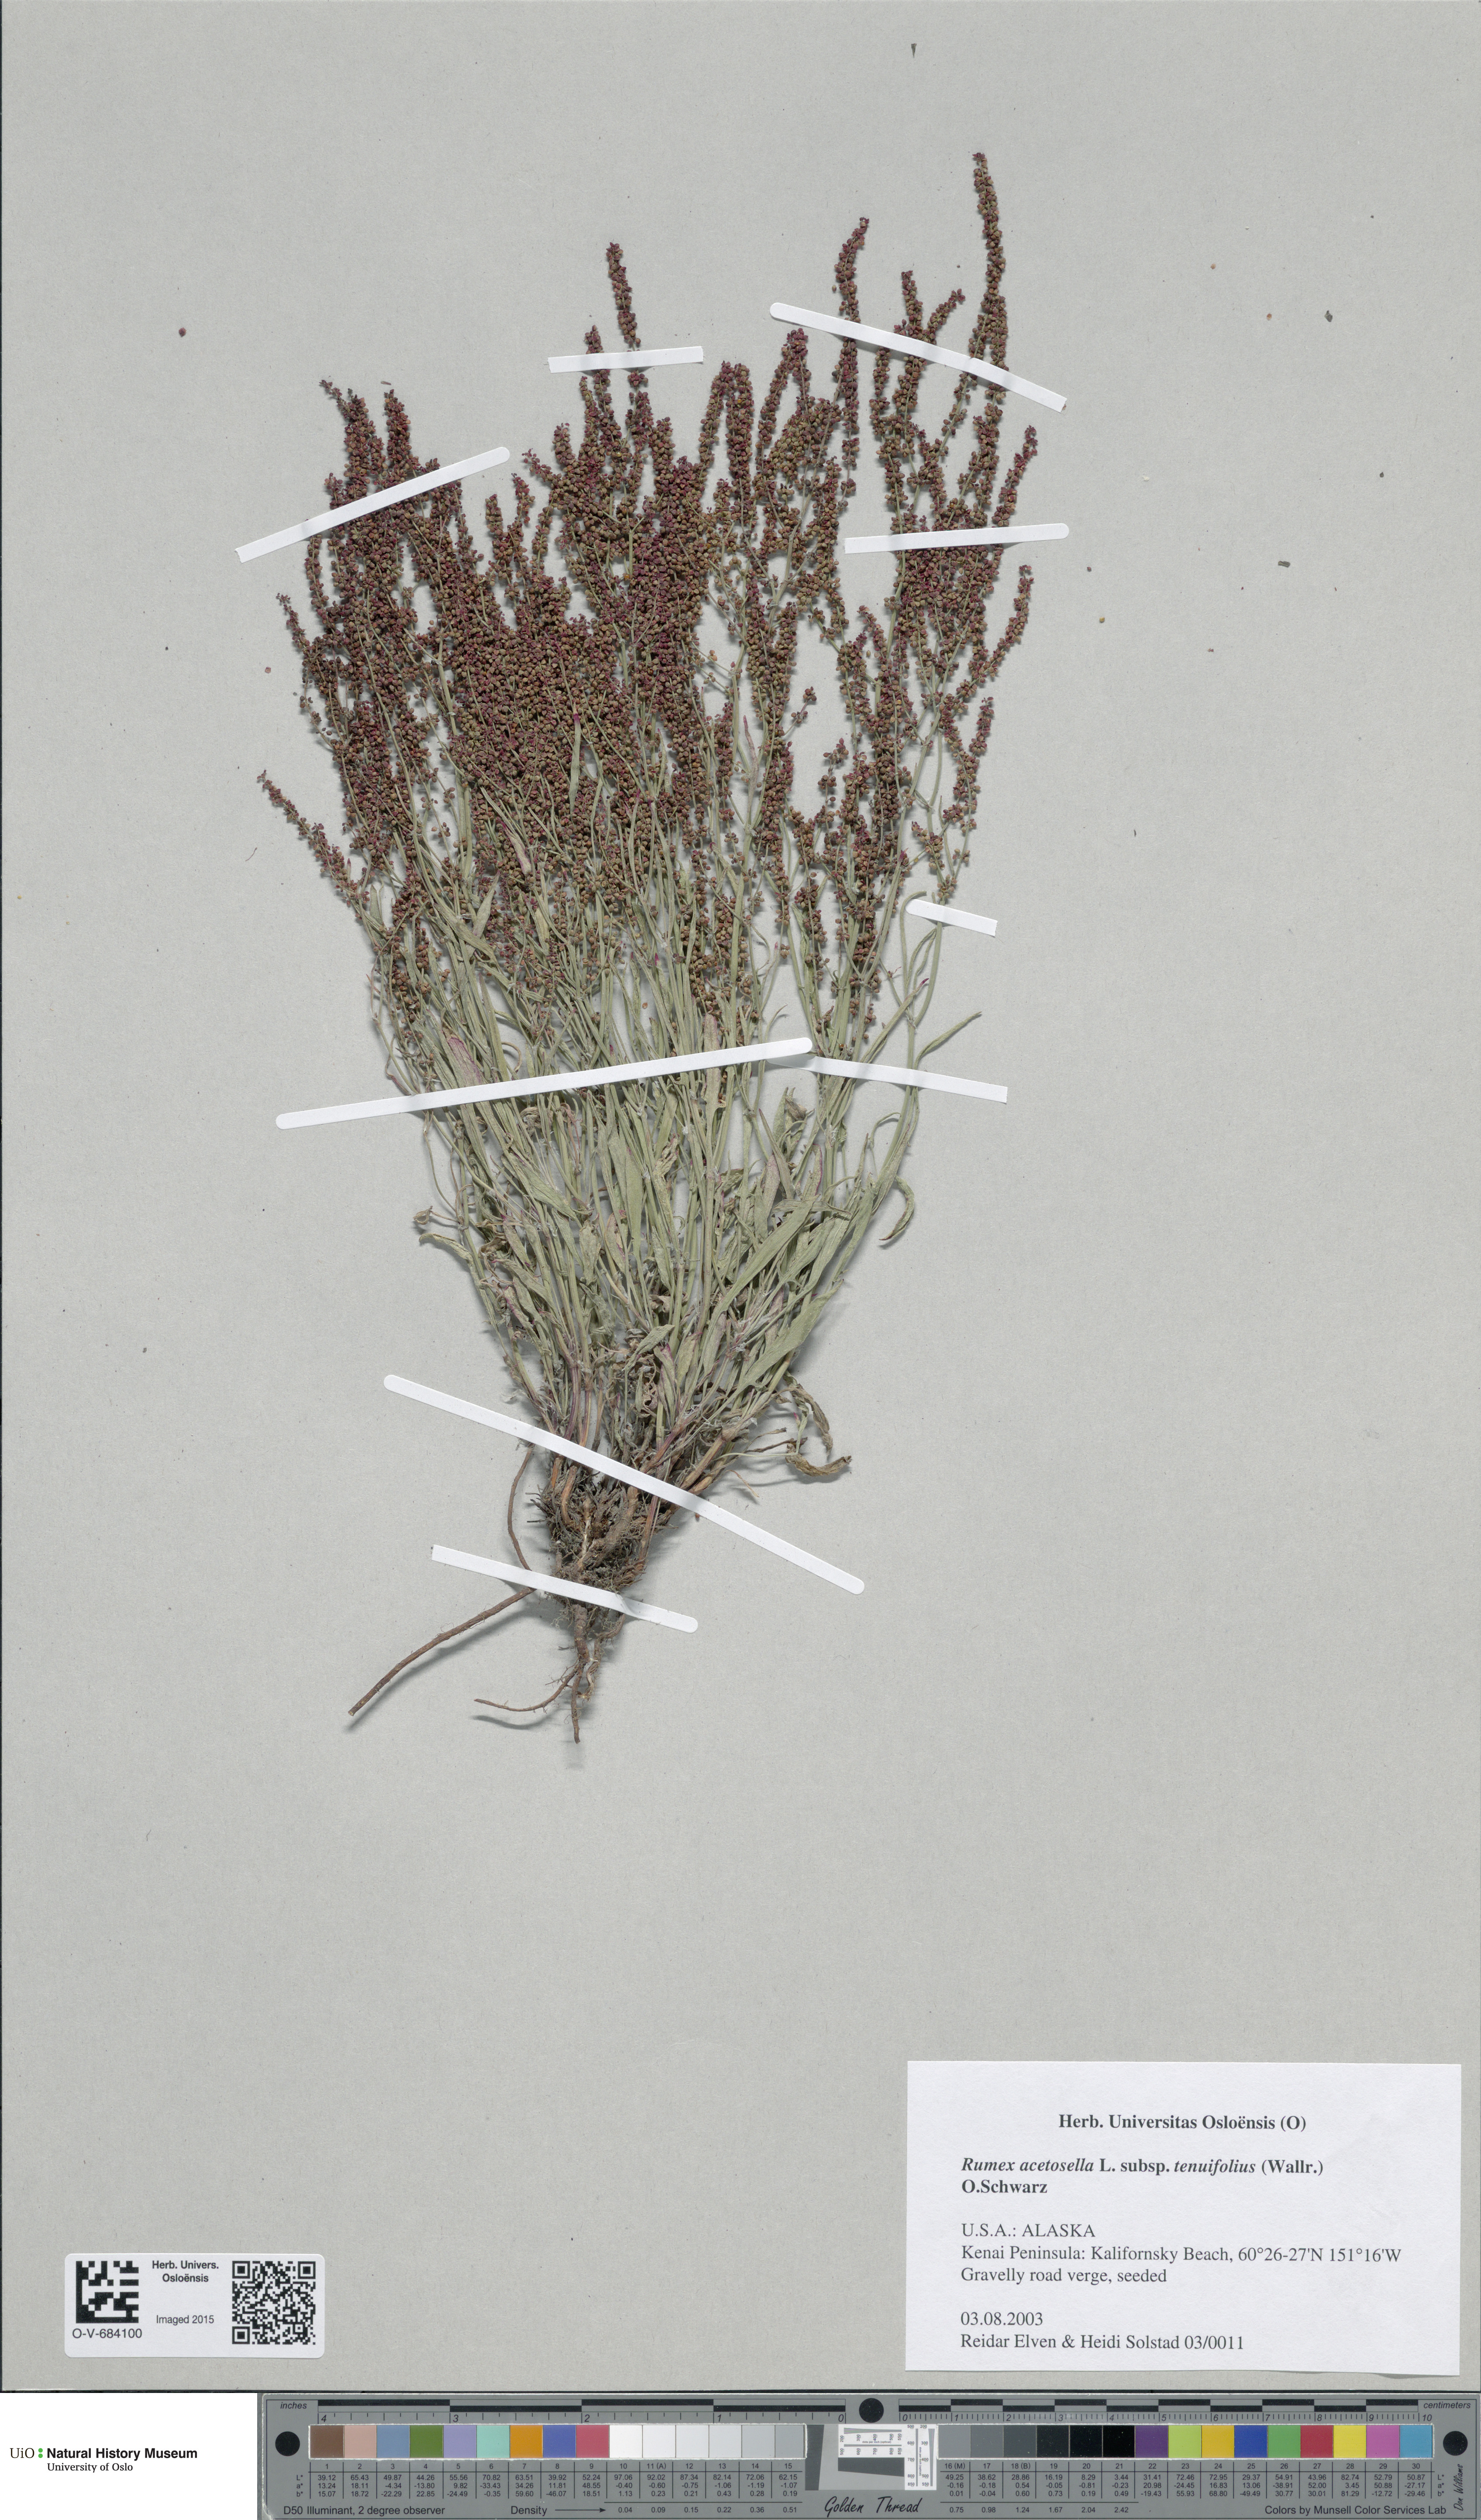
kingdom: Plantae
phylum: Tracheophyta
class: Magnoliopsida
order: Caryophyllales
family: Polygonaceae
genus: Rumex
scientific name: Rumex acetosella
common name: Common sheep sorrel
